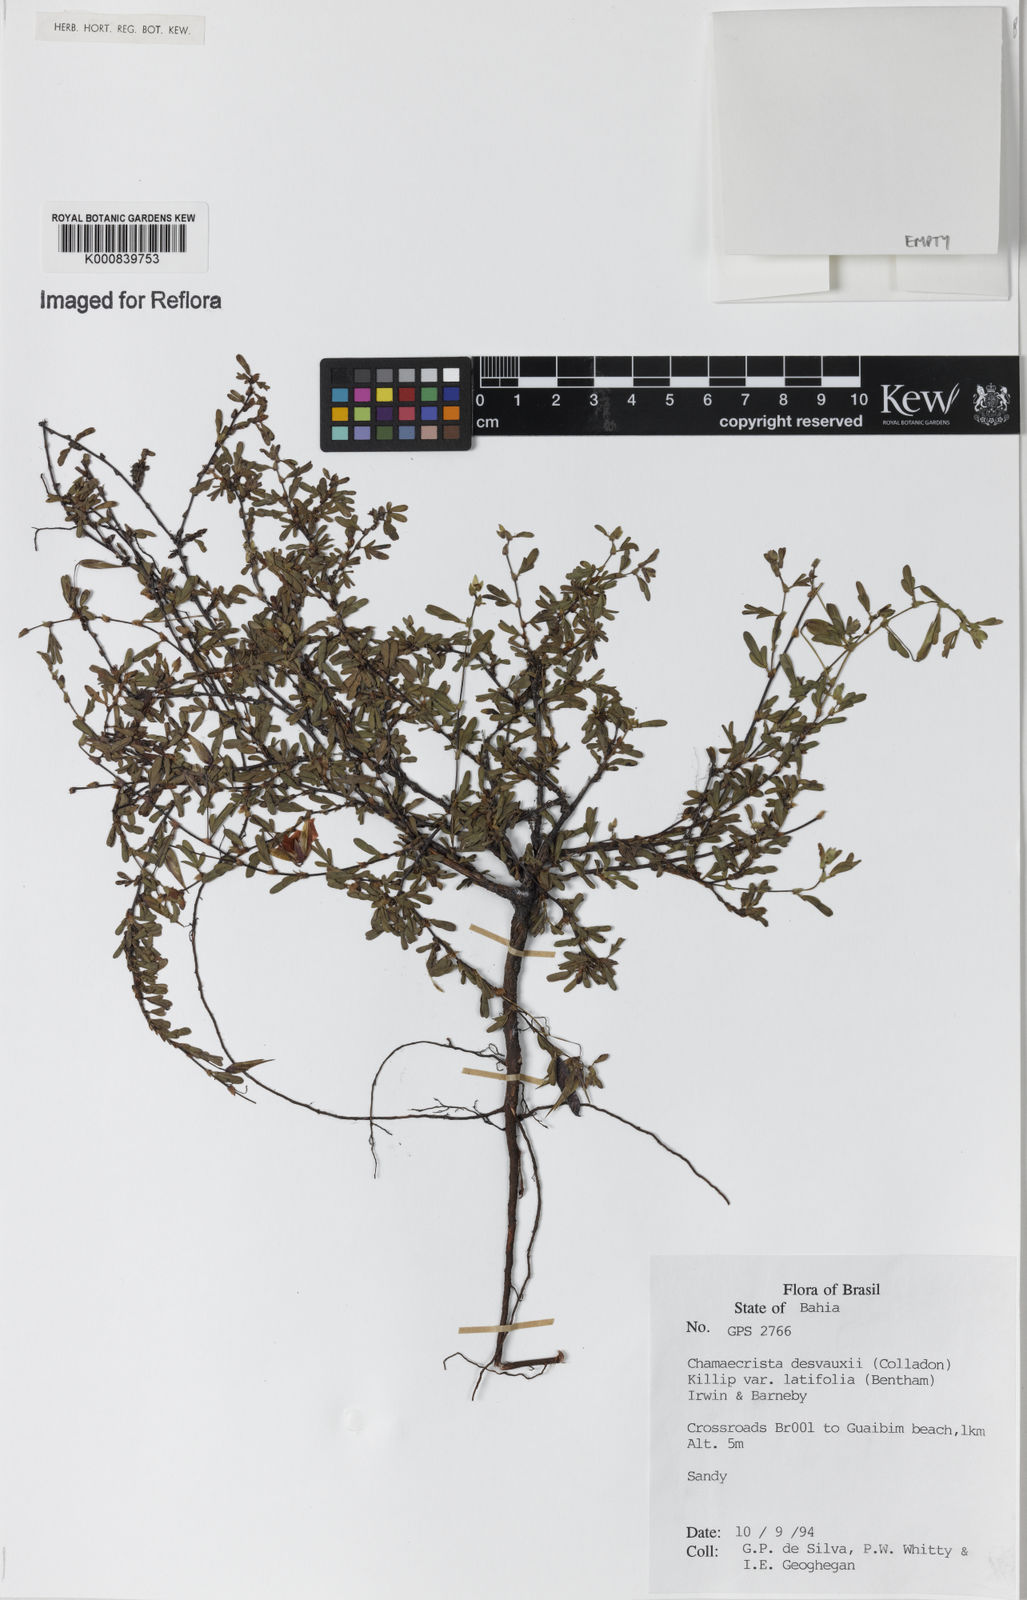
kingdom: Plantae
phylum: Tracheophyta
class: Magnoliopsida
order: Fabales
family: Fabaceae
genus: Chamaecrista
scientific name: Chamaecrista desvauxii
